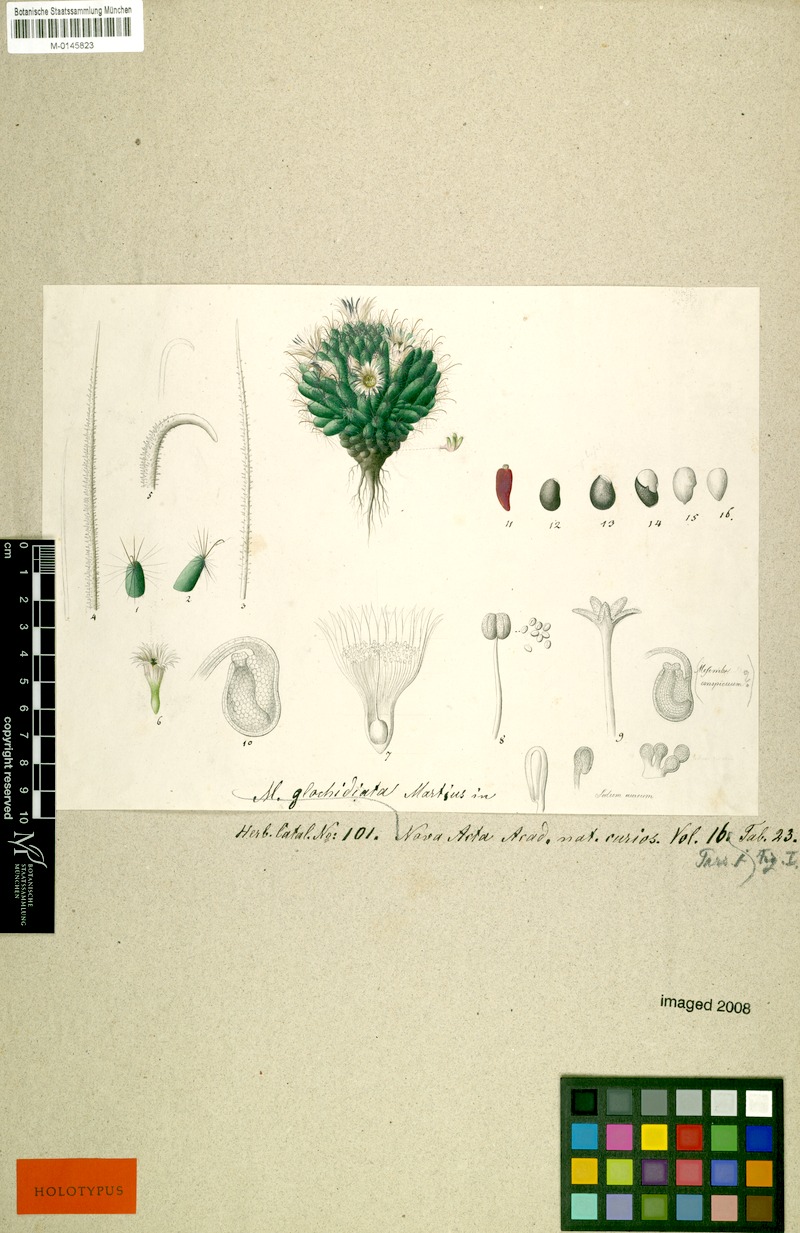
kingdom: Plantae
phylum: Tracheophyta
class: Magnoliopsida
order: Caryophyllales
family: Cactaceae
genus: Mammillaria
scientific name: Mammillaria glochidiata
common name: Fishhook pincushion cactus
